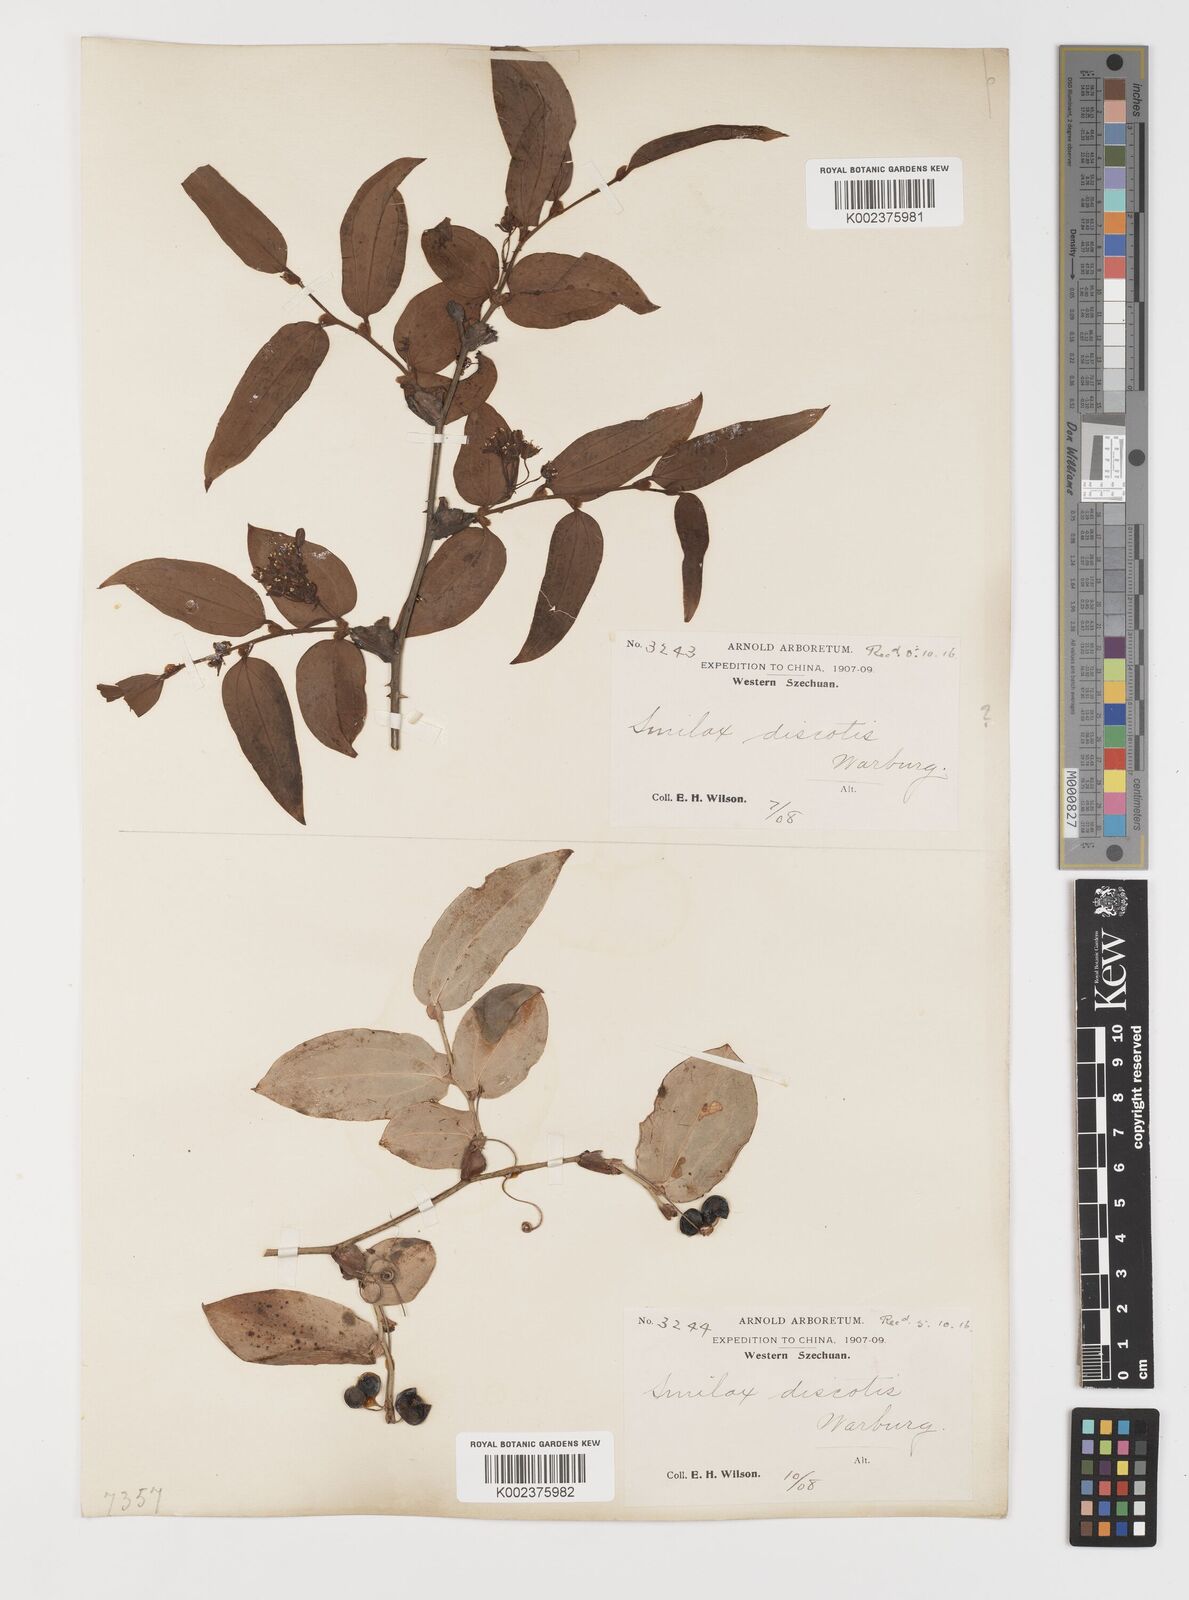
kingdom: Plantae
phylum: Tracheophyta
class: Liliopsida
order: Liliales
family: Smilacaceae
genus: Smilax
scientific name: Smilax discotis
